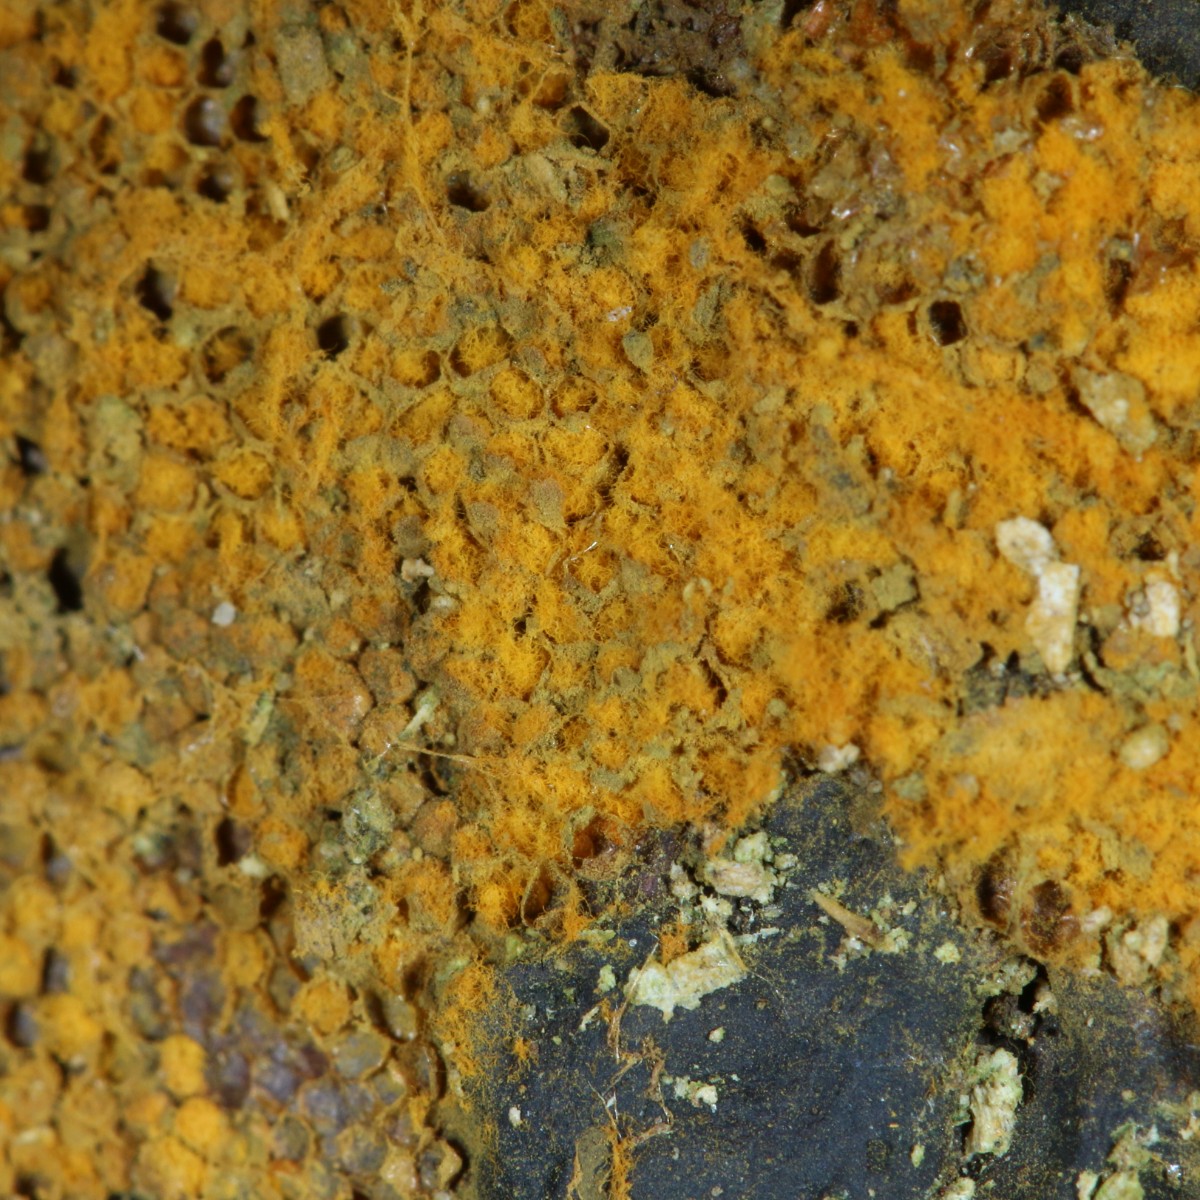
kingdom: Protozoa
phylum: Mycetozoa
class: Myxomycetes
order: Trichiales
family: Trichiaceae
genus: Trichia
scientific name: Trichia scabra
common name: tæppe-hårbold
